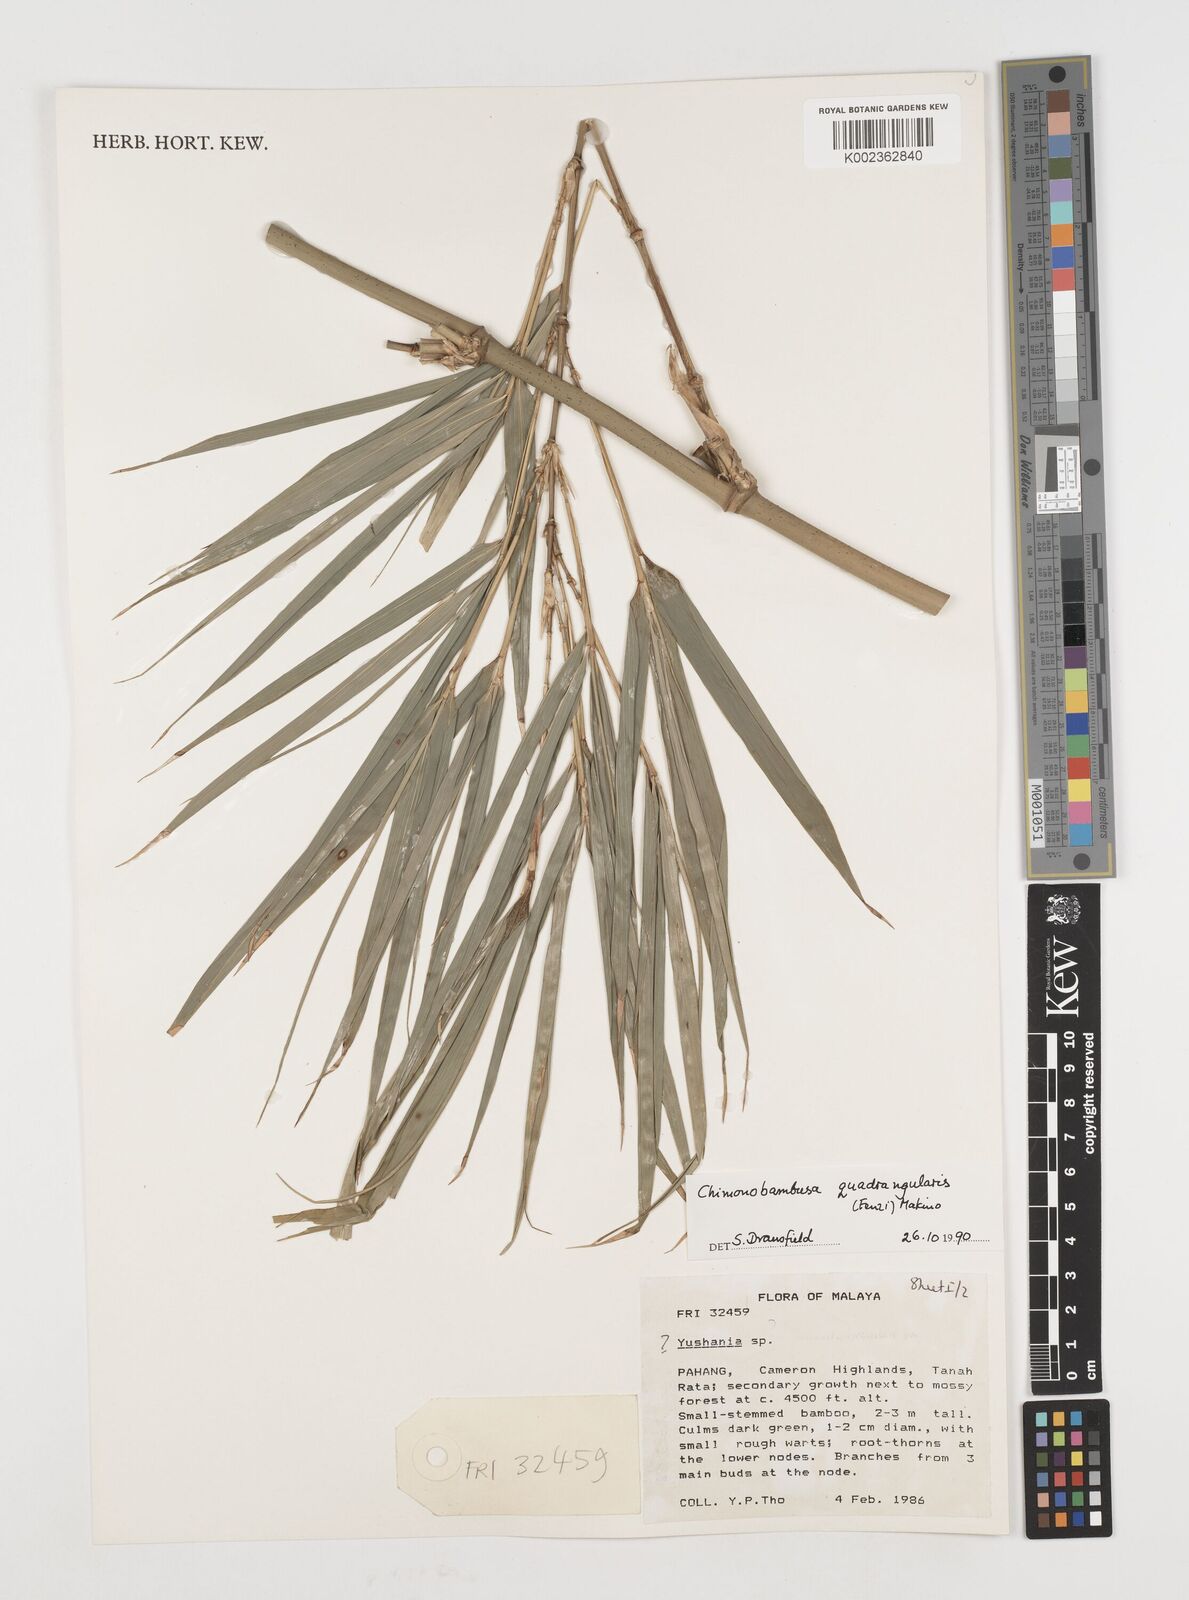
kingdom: Plantae
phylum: Tracheophyta
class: Liliopsida
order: Poales
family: Poaceae
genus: Chimonobambusa
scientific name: Chimonobambusa quadrangularis
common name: Square-stemmed bamboo
